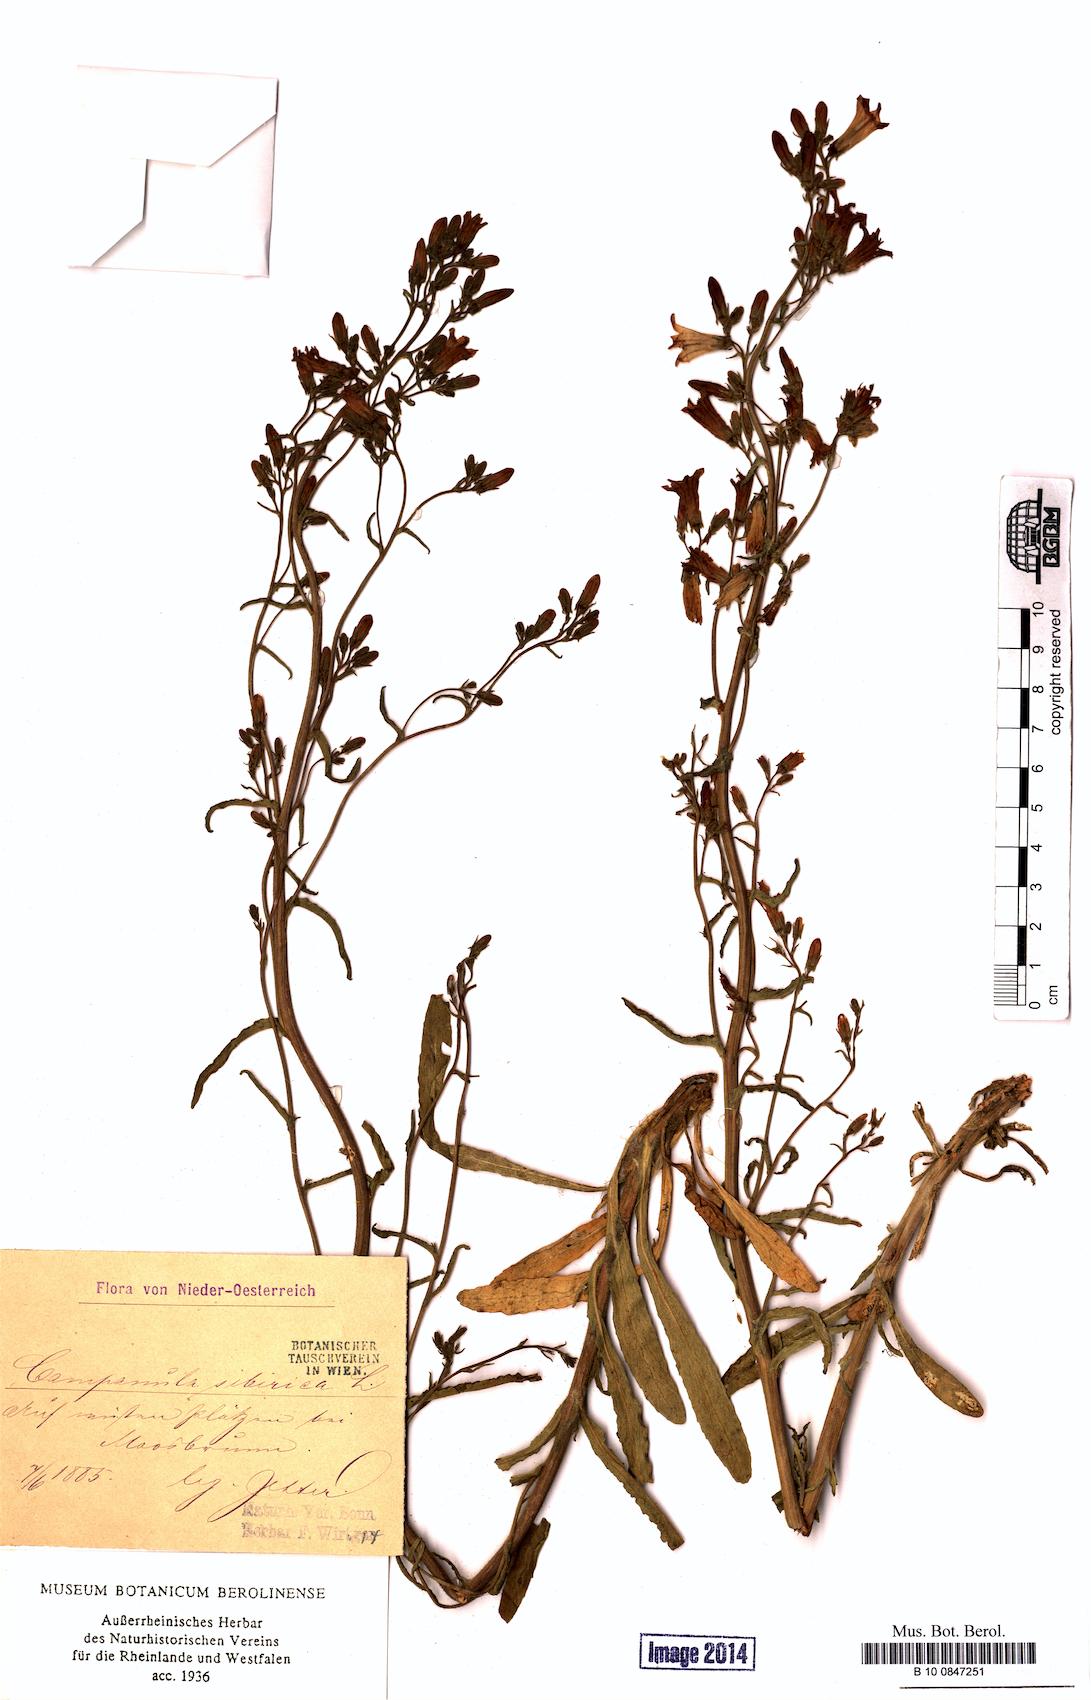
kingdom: Plantae
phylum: Tracheophyta
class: Magnoliopsida
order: Asterales
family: Campanulaceae
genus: Campanula
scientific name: Campanula sibirica
